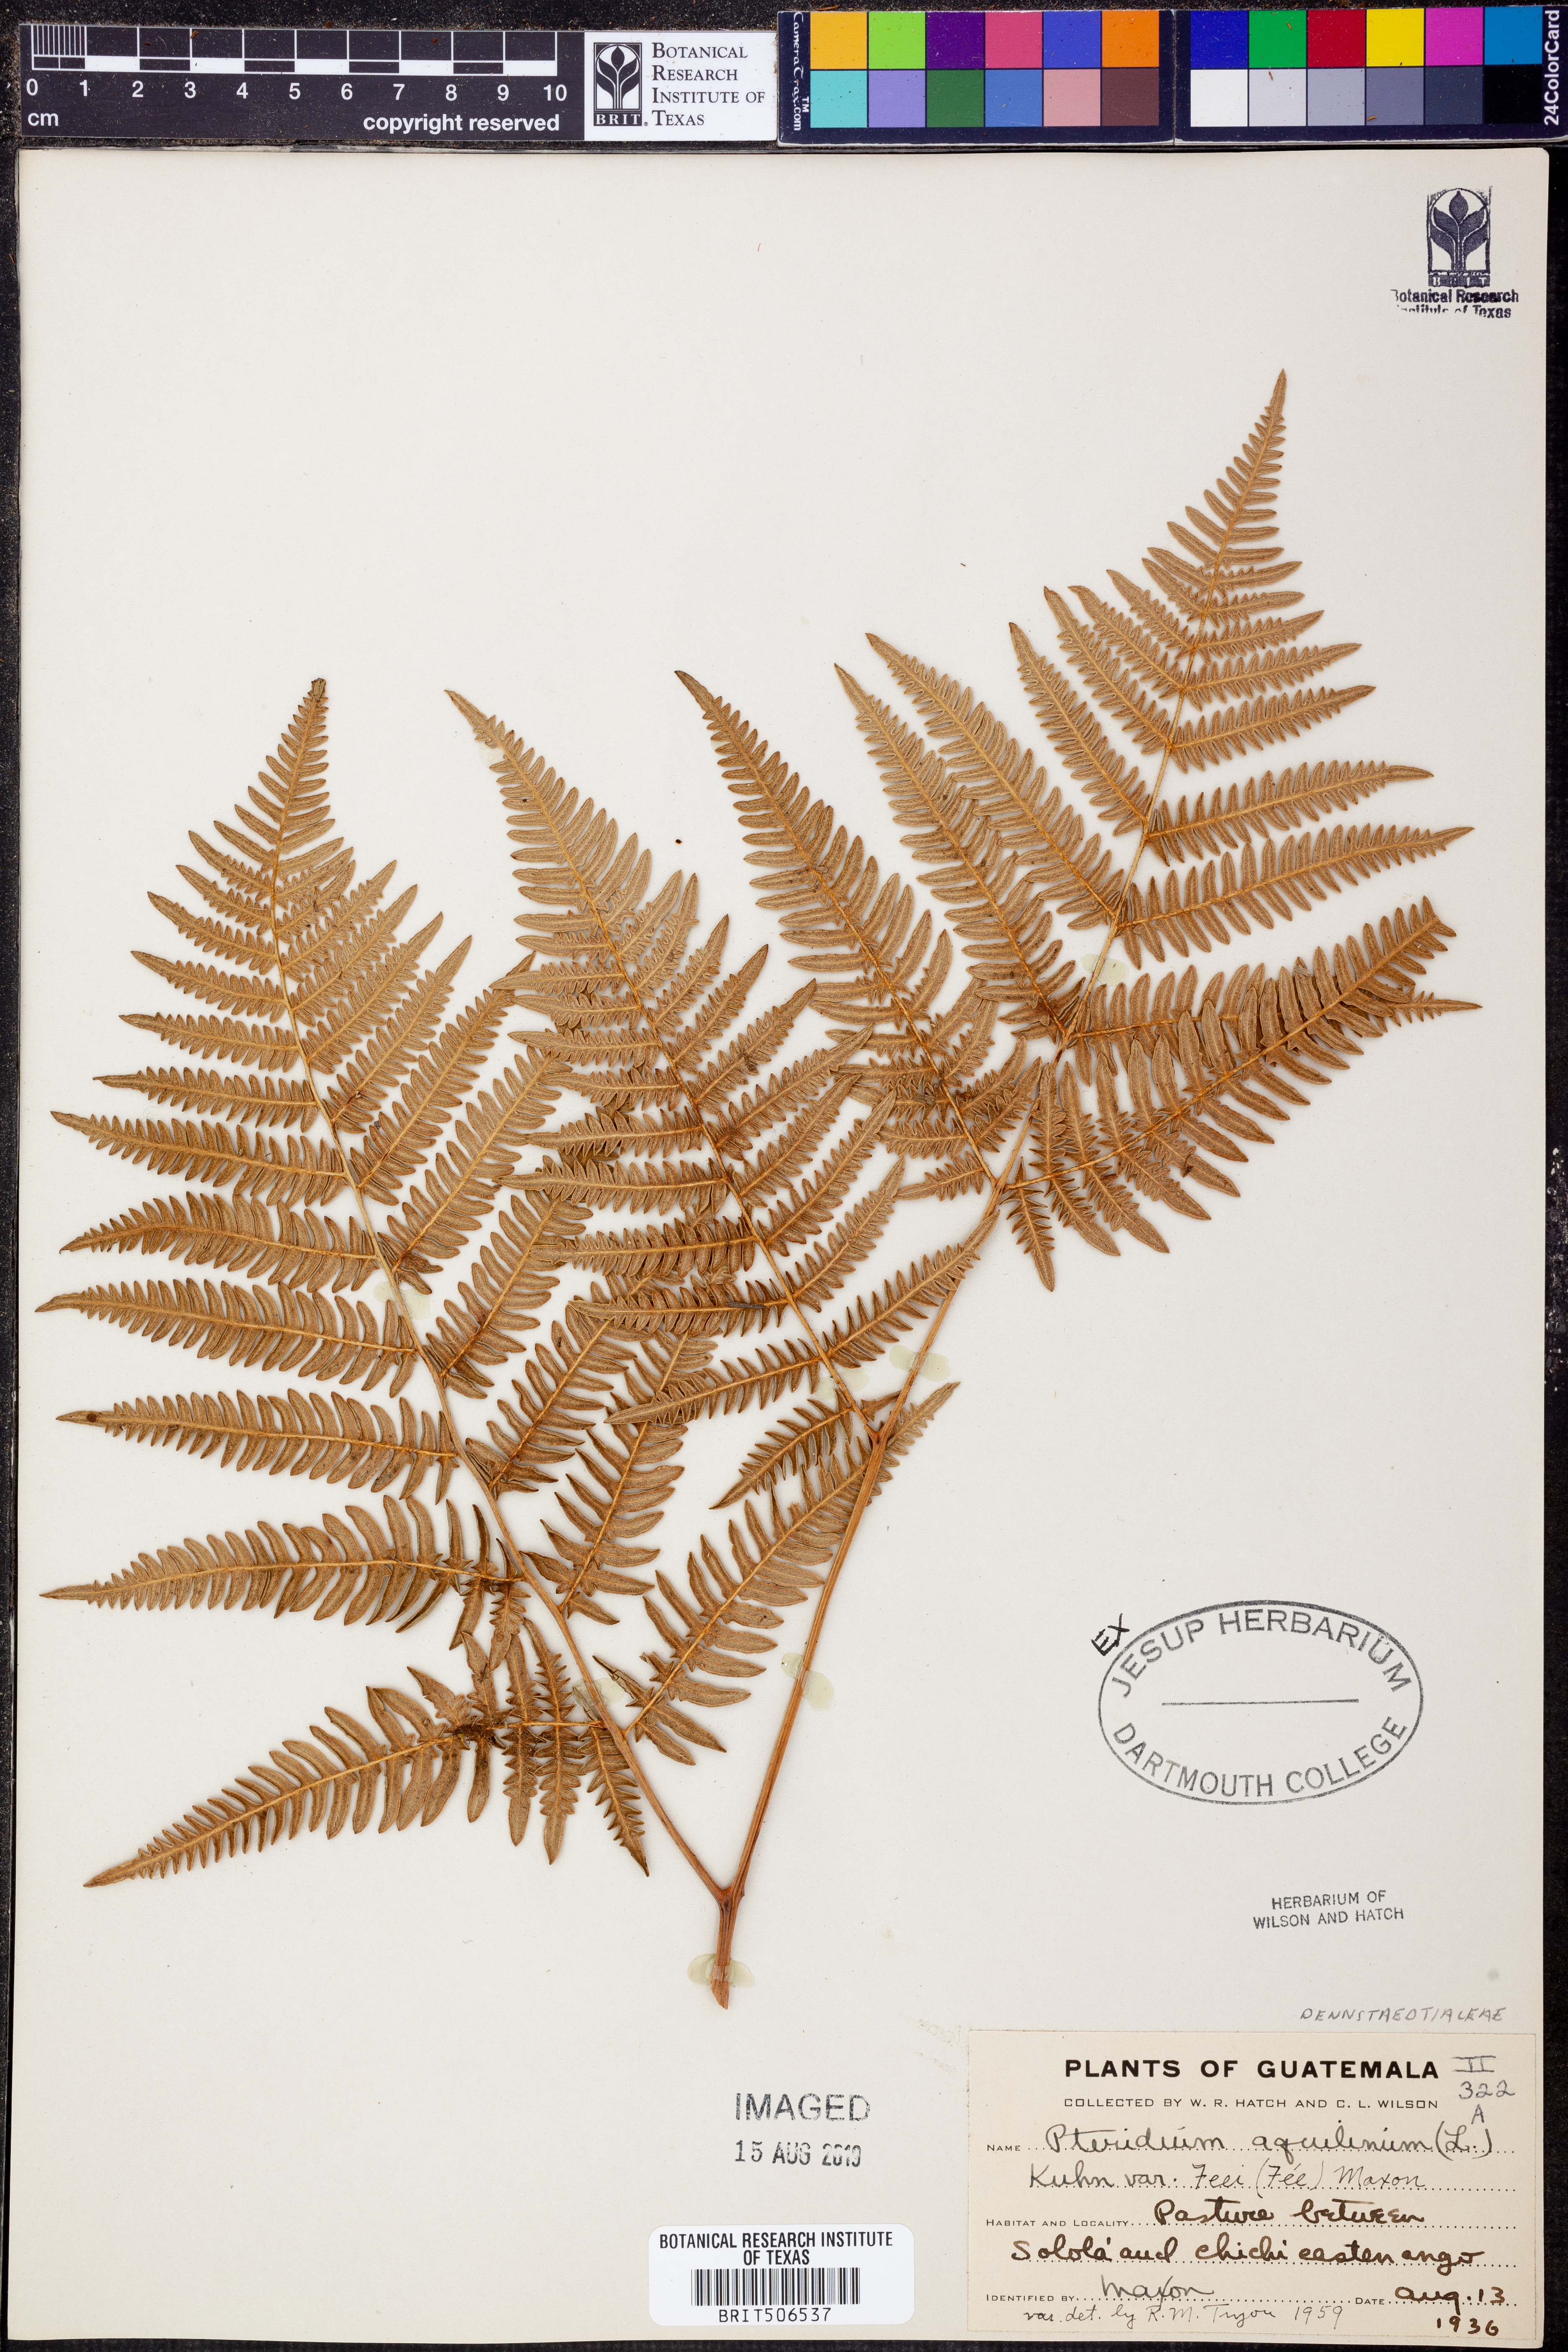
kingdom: Plantae
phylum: Tracheophyta
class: Polypodiopsida
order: Polypodiales
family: Dennstaedtiaceae
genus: Pteridium
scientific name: Pteridium aquilinum
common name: Bracken
